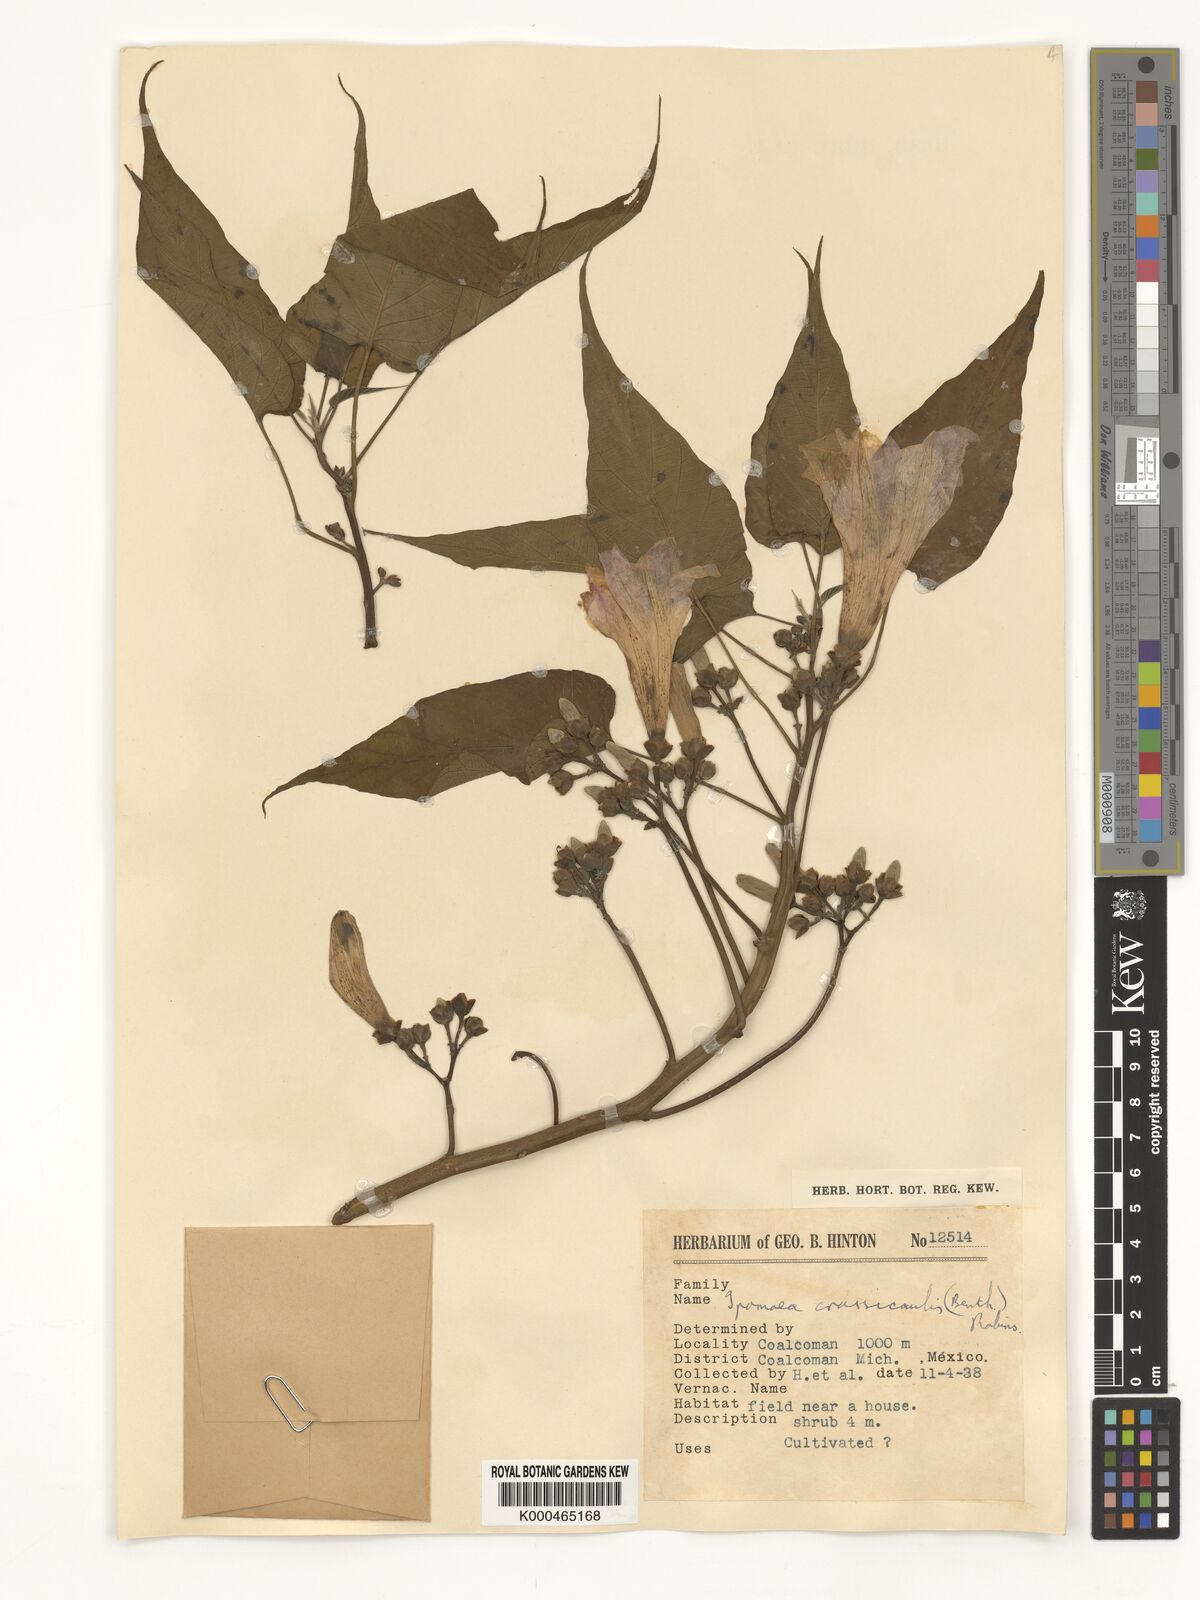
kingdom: Plantae
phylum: Tracheophyta
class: Magnoliopsida
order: Solanales
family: Convolvulaceae
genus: Ipomoea
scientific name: Ipomoea carnea
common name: Morning-glory
